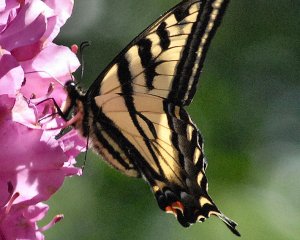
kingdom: Animalia
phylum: Arthropoda
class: Insecta
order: Lepidoptera
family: Papilionidae
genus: Pterourus
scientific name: Pterourus rutulus
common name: Western Tiger Swallowtail
